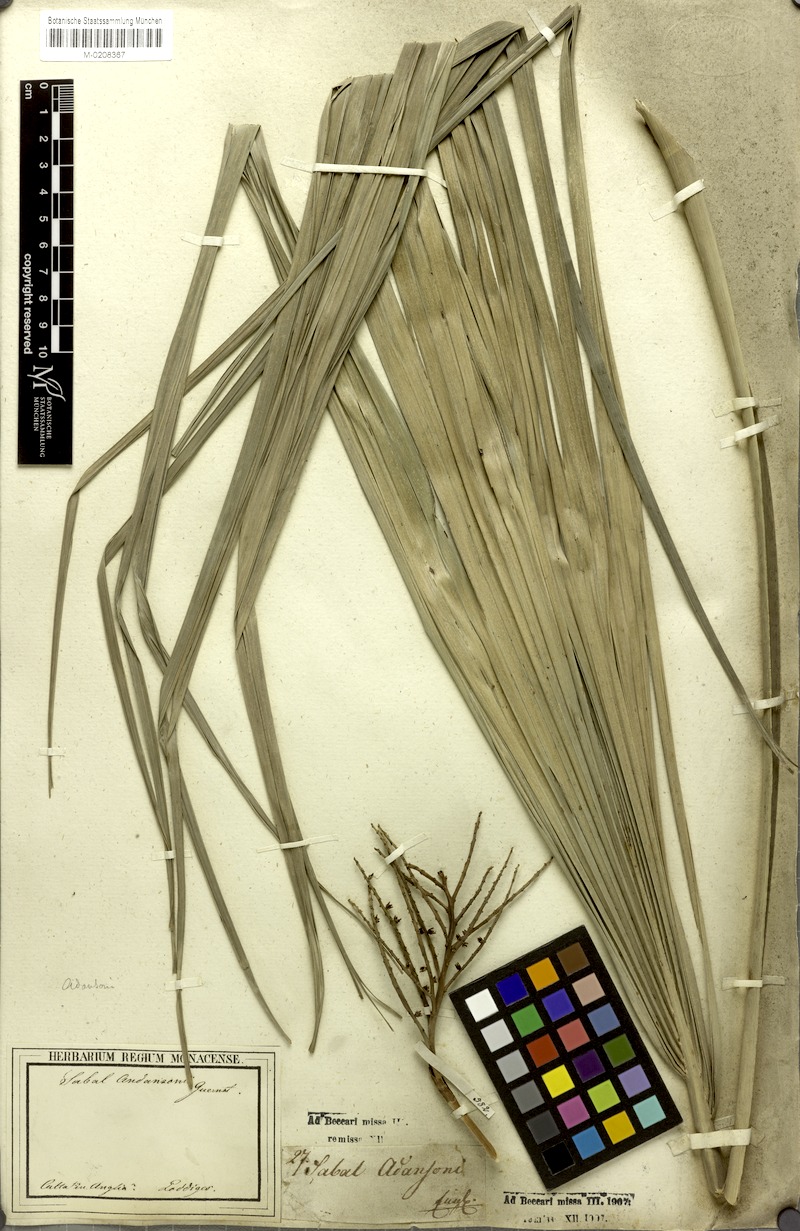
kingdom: Plantae
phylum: Tracheophyta
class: Liliopsida
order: Arecales
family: Arecaceae
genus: Sabal
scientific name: Sabal minor
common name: Dwarf palmetto
